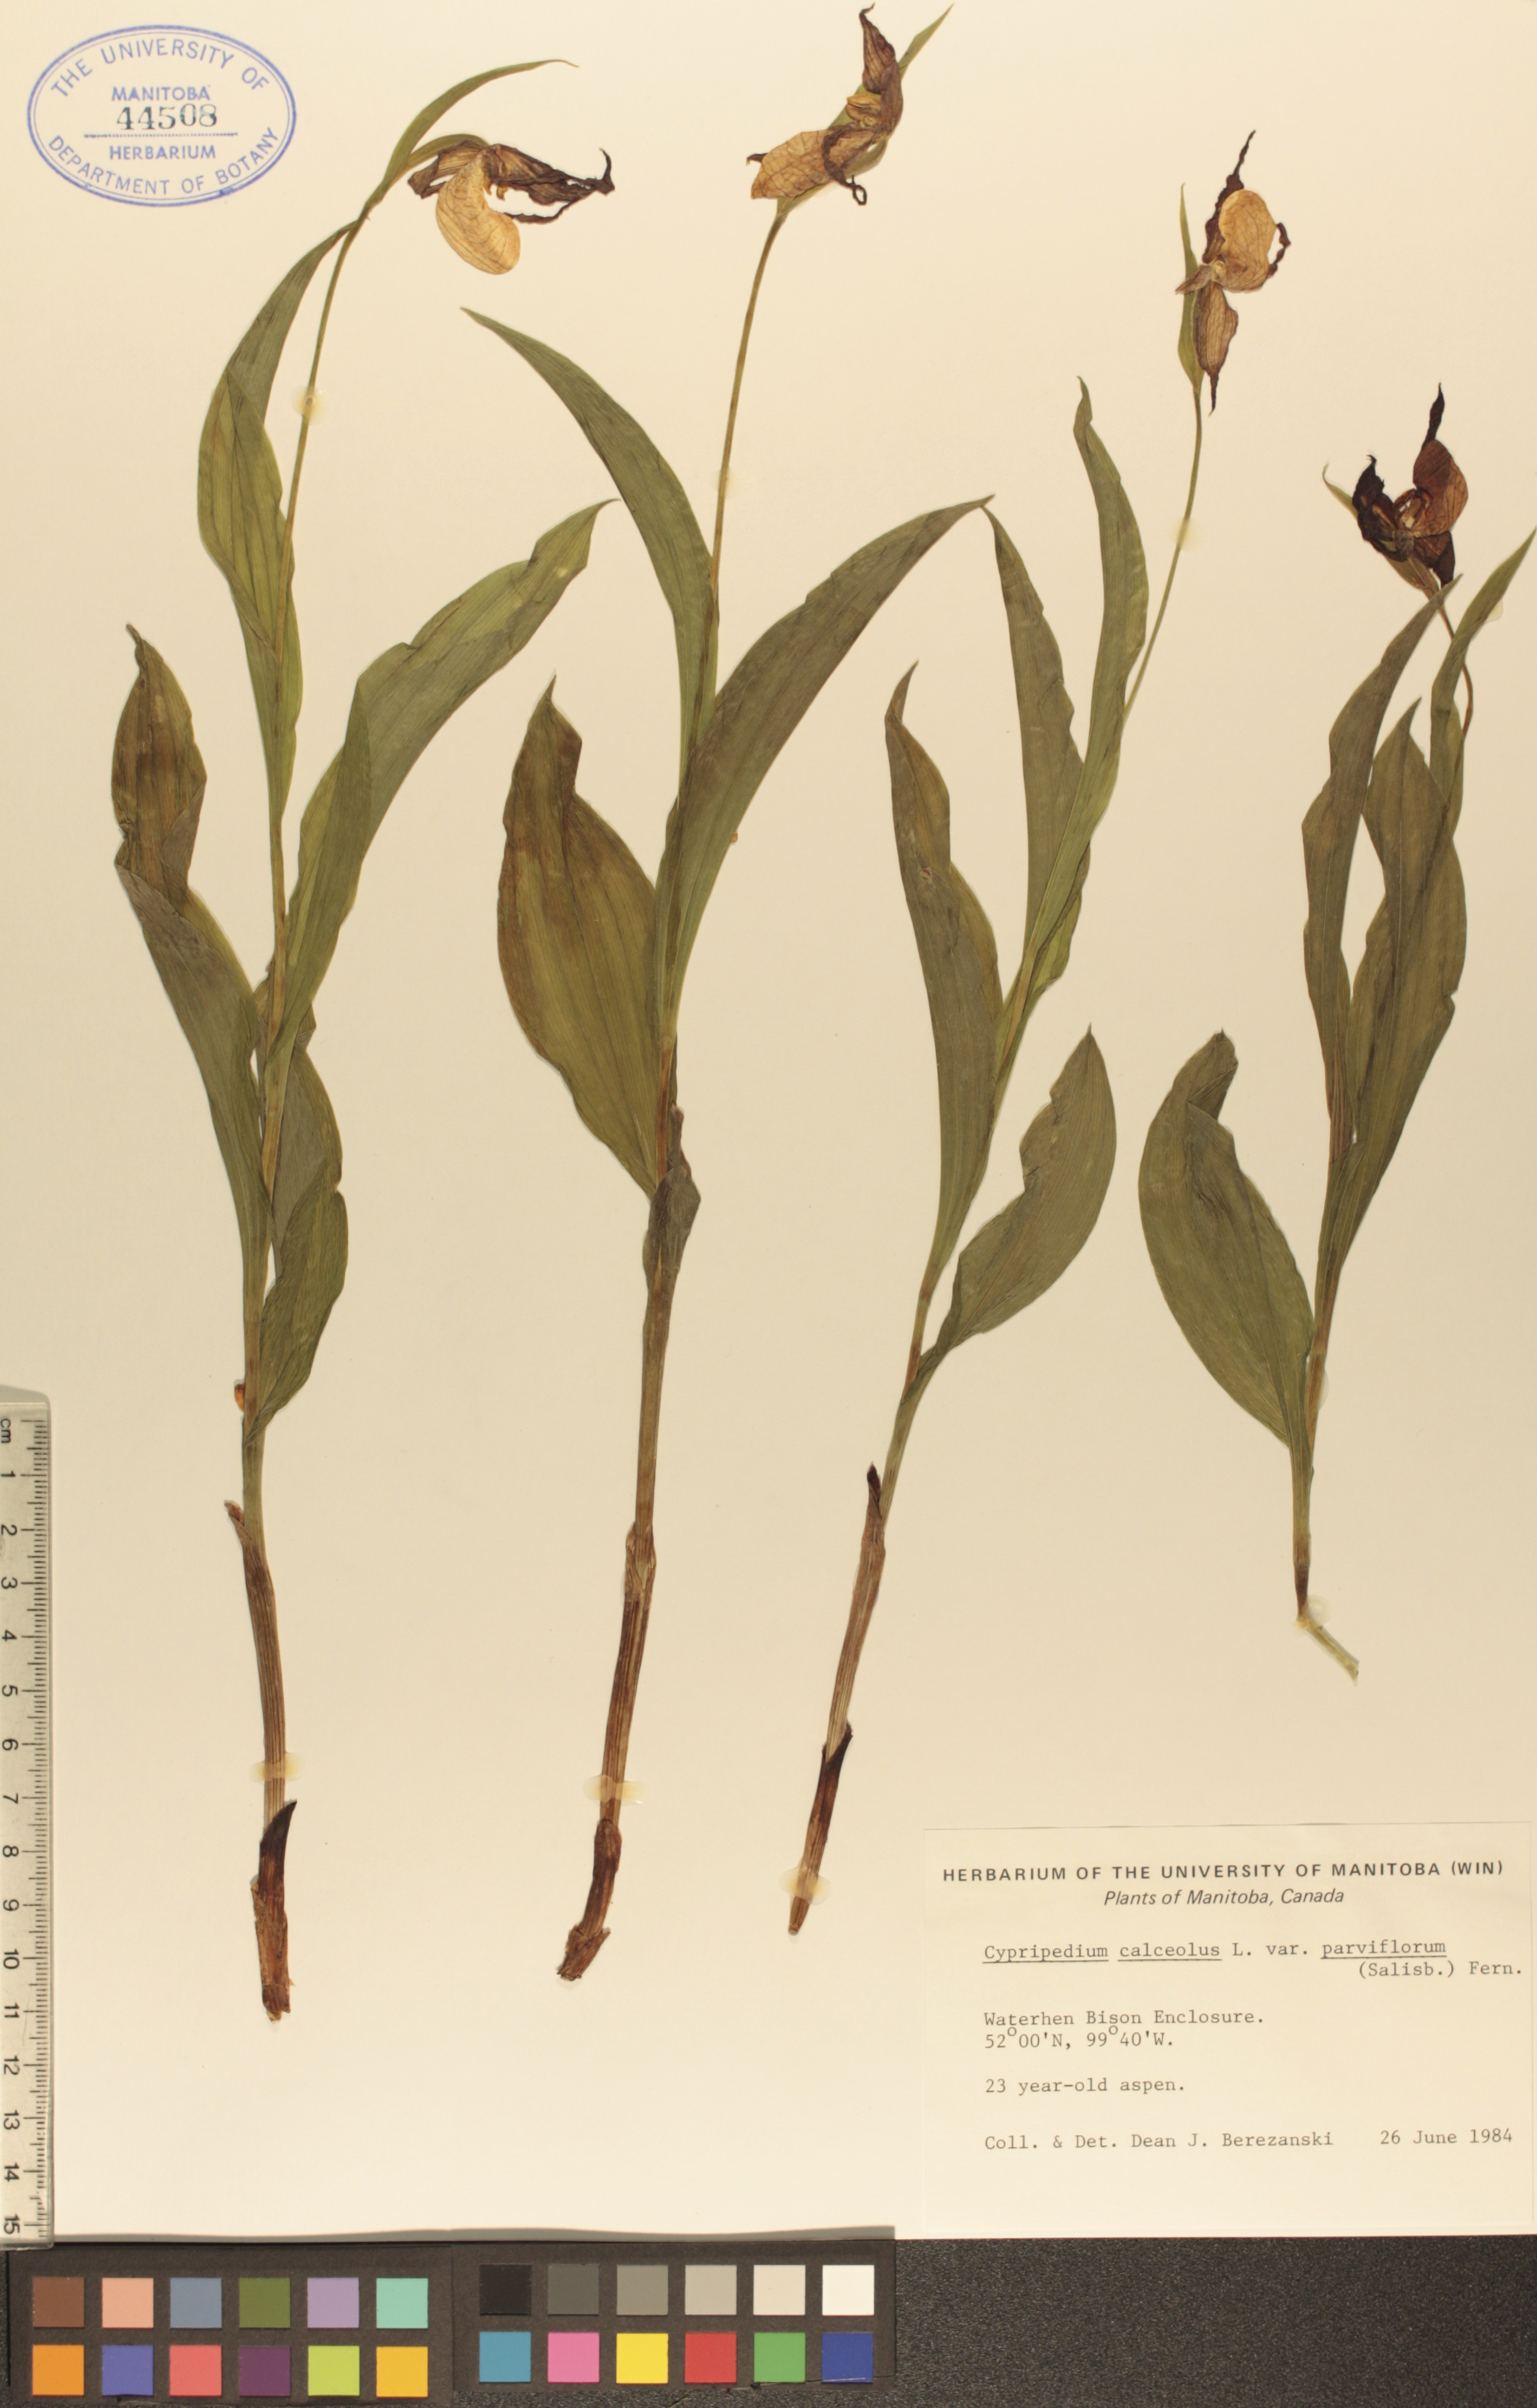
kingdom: Plantae
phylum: Tracheophyta
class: Liliopsida
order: Asparagales
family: Orchidaceae
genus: Cypripedium
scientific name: Cypripedium parviflorum
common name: American yellow lady's-slipper
